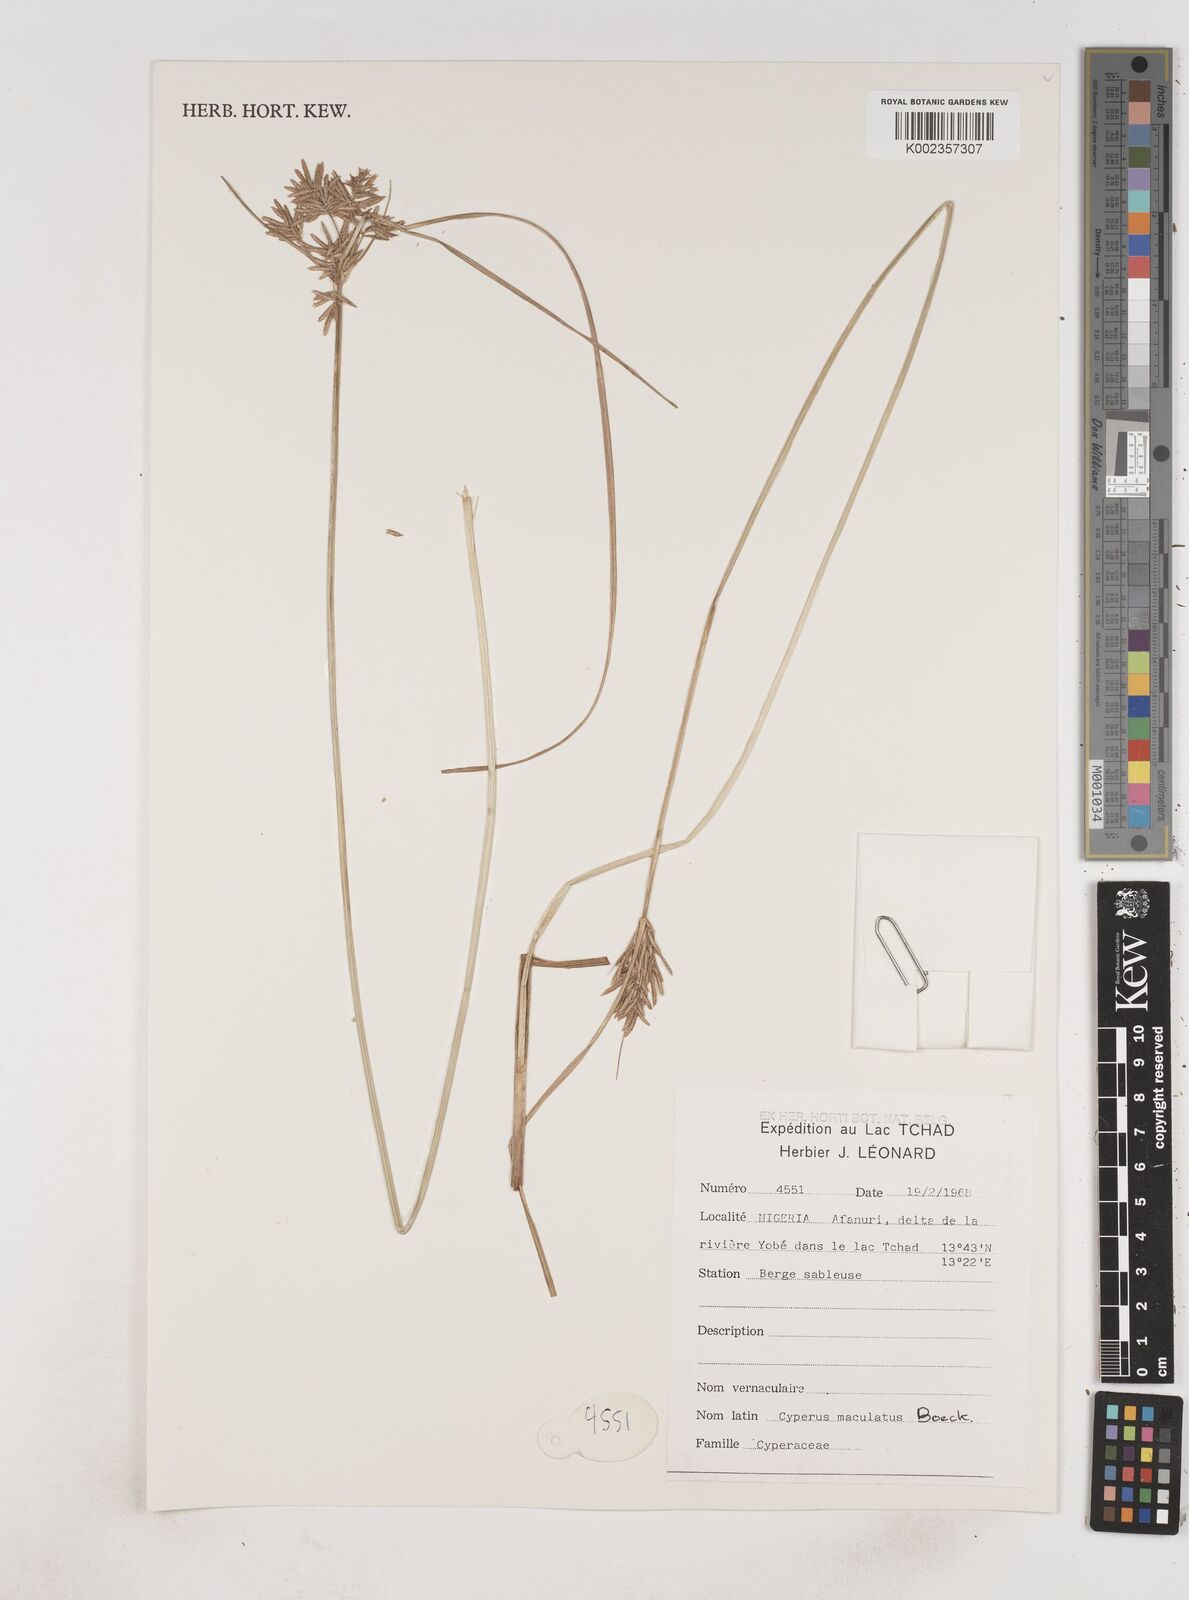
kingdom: Plantae
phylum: Tracheophyta
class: Liliopsida
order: Poales
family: Cyperaceae
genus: Cyperus
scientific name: Cyperus laevigatus
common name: Smooth flat sedge
